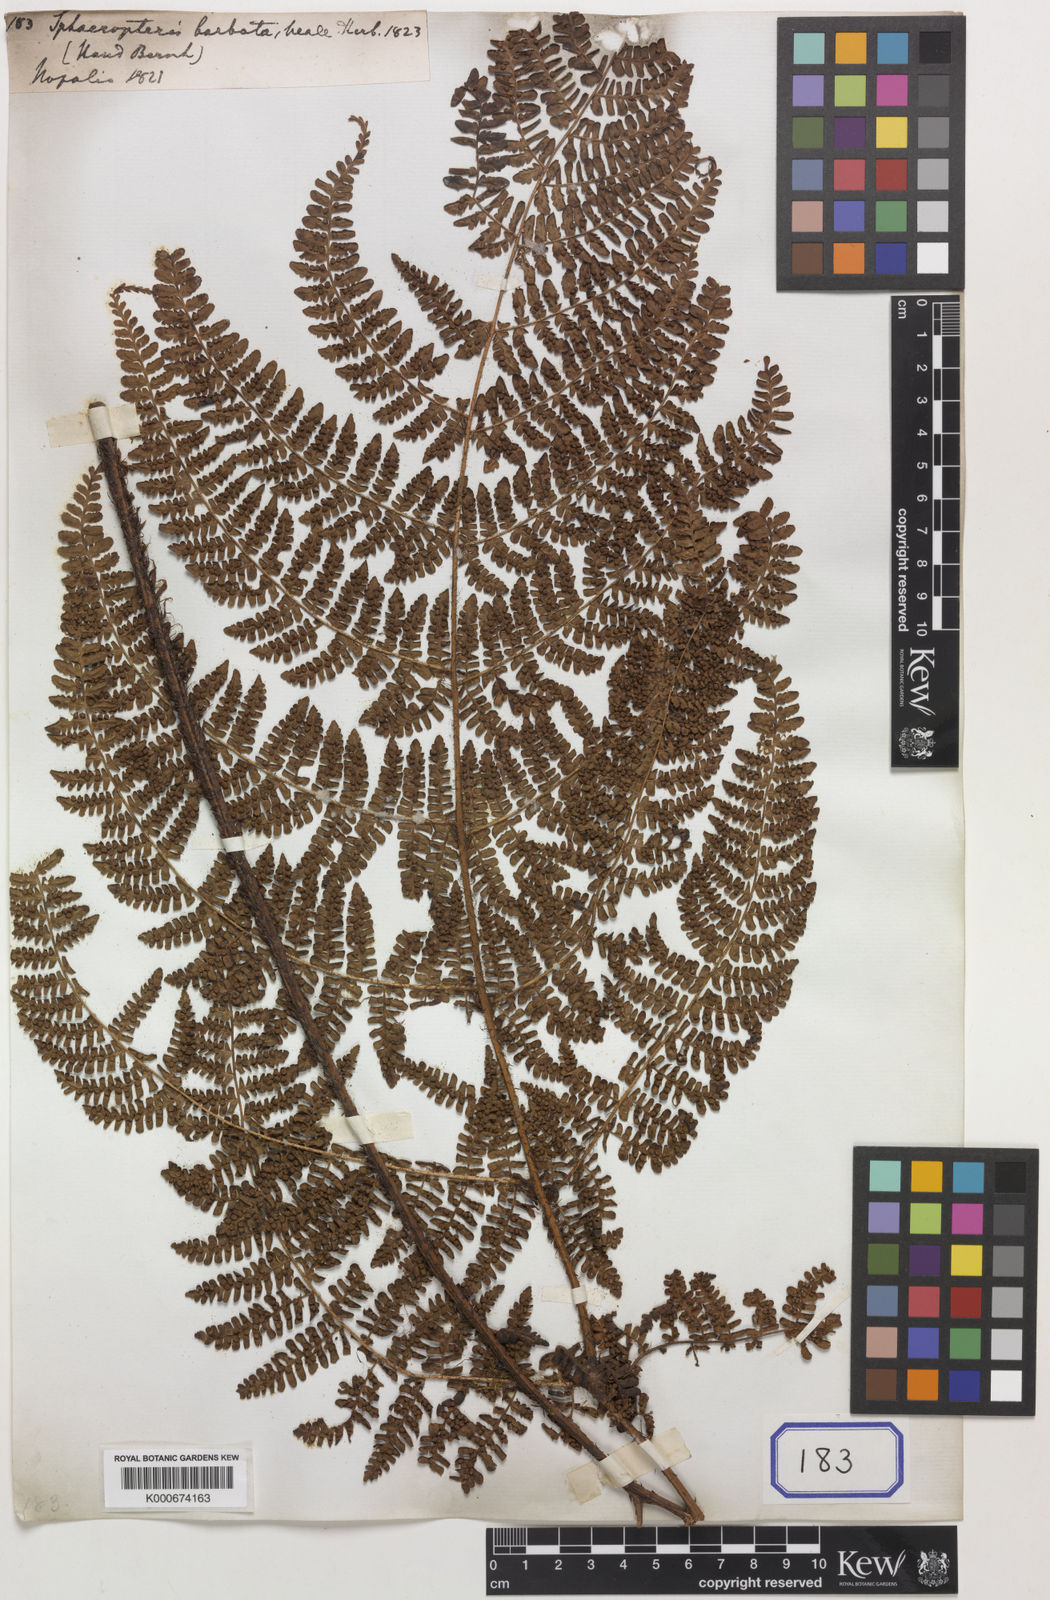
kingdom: Plantae
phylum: Tracheophyta
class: Polypodiopsida
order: Polypodiales
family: Dryopteridaceae
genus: Dryopteris
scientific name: Dryopteris peranema
